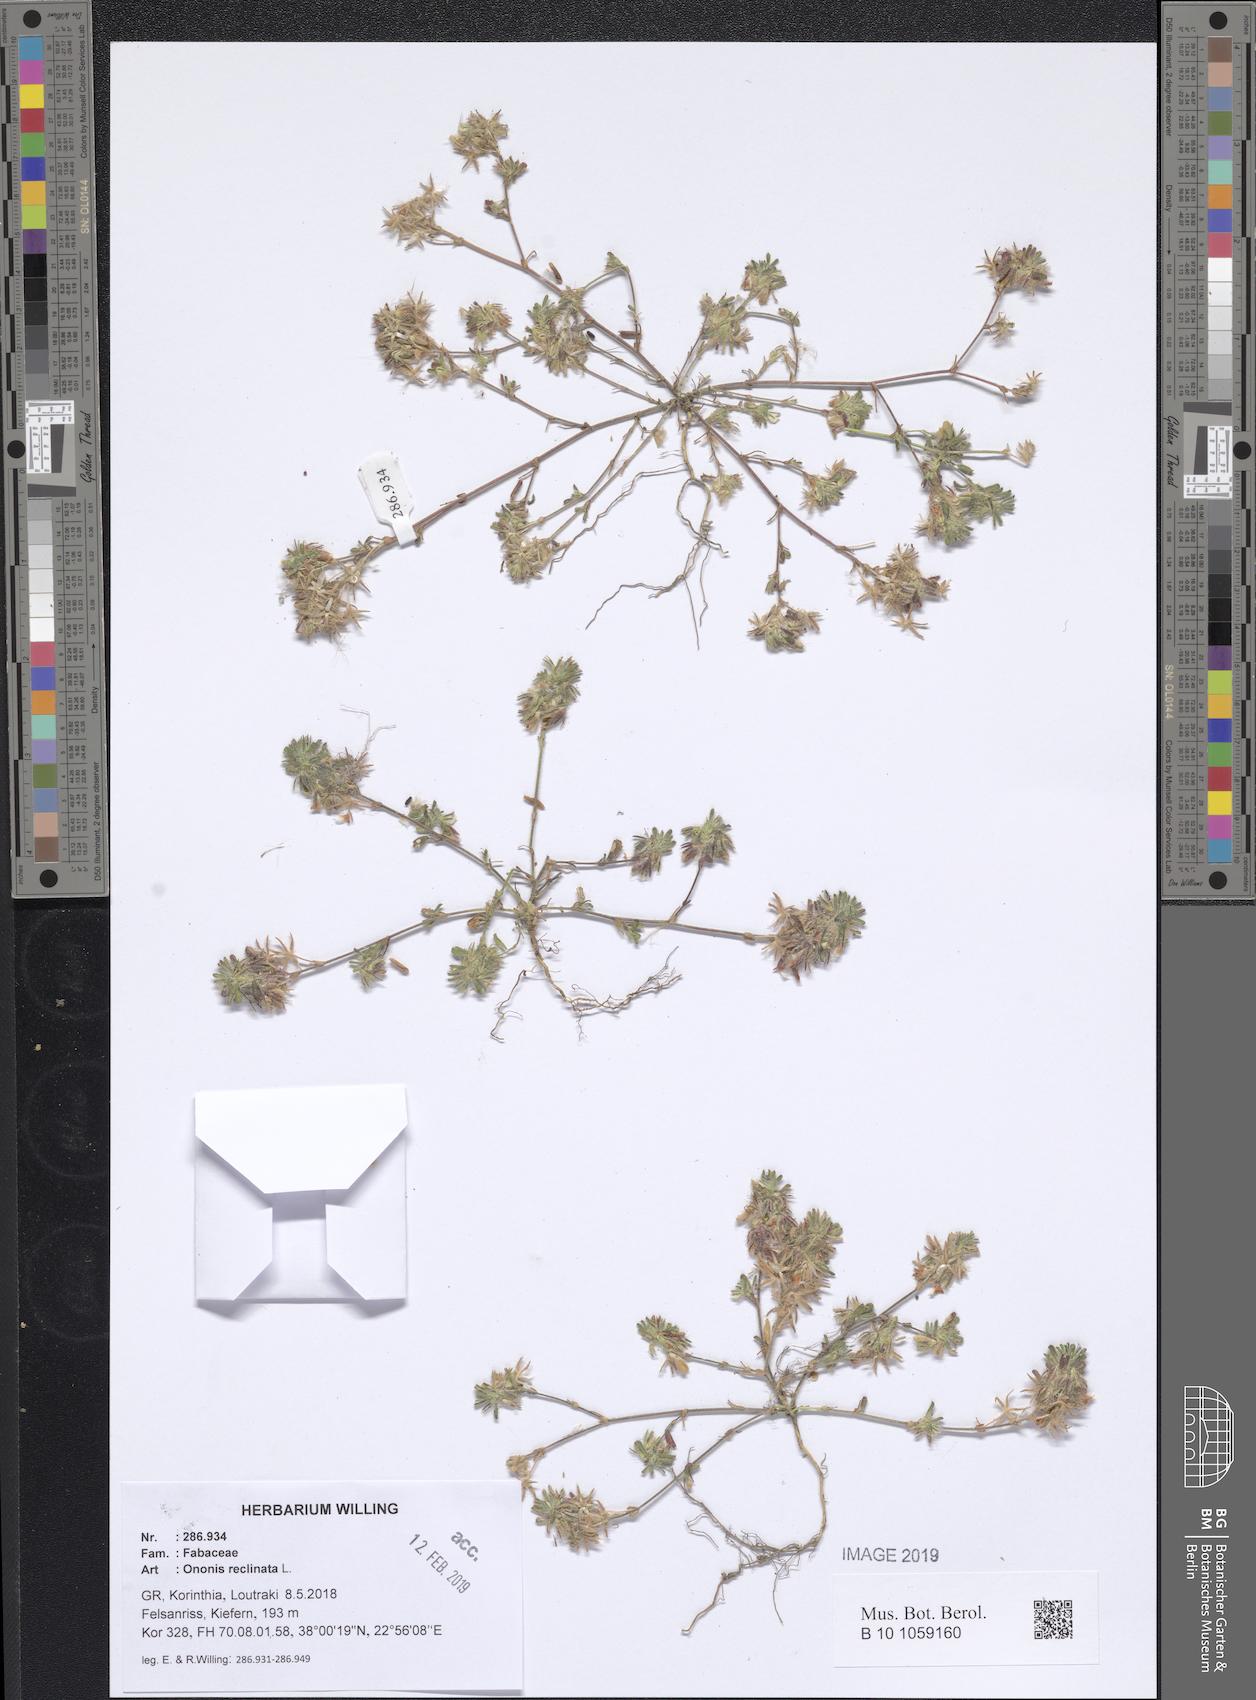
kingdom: Plantae
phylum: Tracheophyta
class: Magnoliopsida
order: Fabales
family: Fabaceae
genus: Ononis
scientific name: Ononis reclinata
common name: Small restharrow
